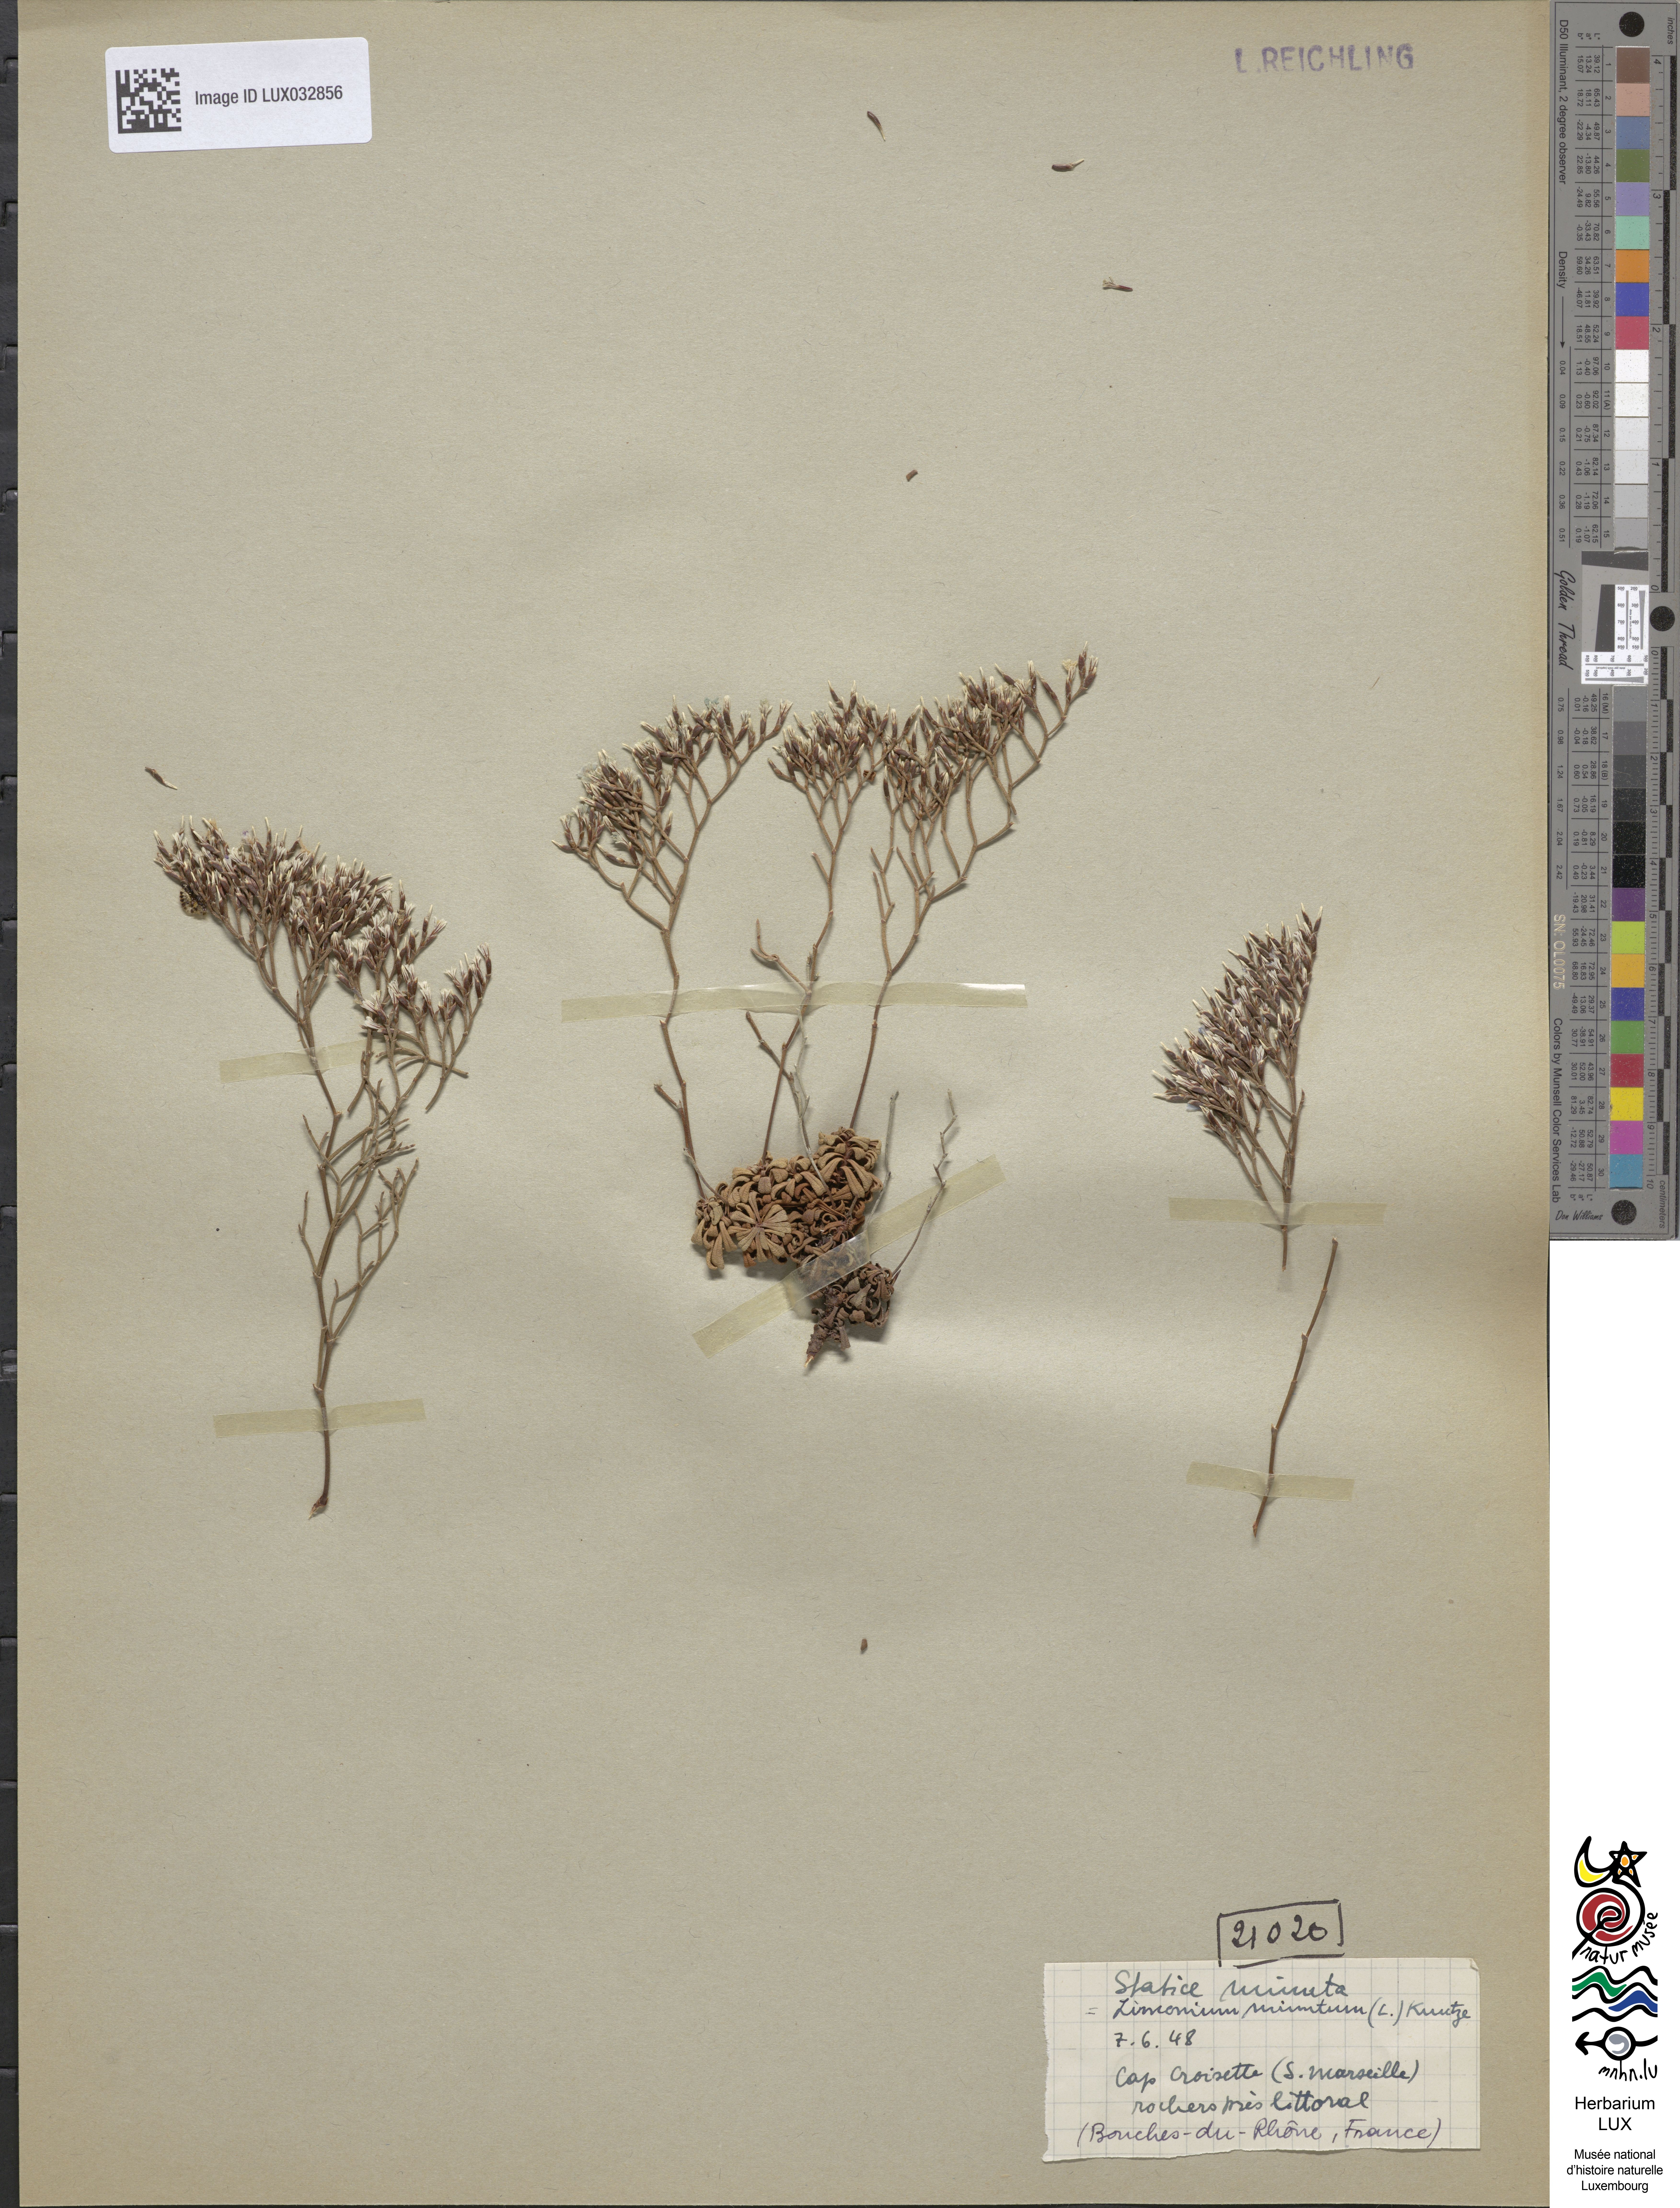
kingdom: Plantae
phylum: Tracheophyta
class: Magnoliopsida
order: Caryophyllales
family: Plumbaginaceae
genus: Limonium
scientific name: Limonium minutum
